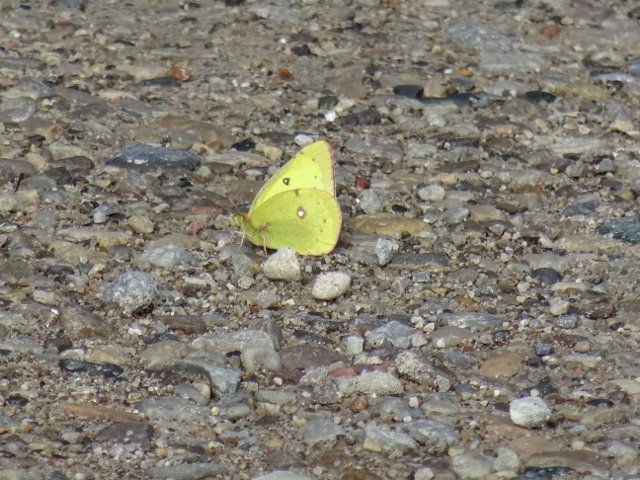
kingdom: Animalia
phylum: Arthropoda
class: Insecta
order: Lepidoptera
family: Pieridae
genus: Colias
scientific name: Colias philodice
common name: Clouded Sulphur
